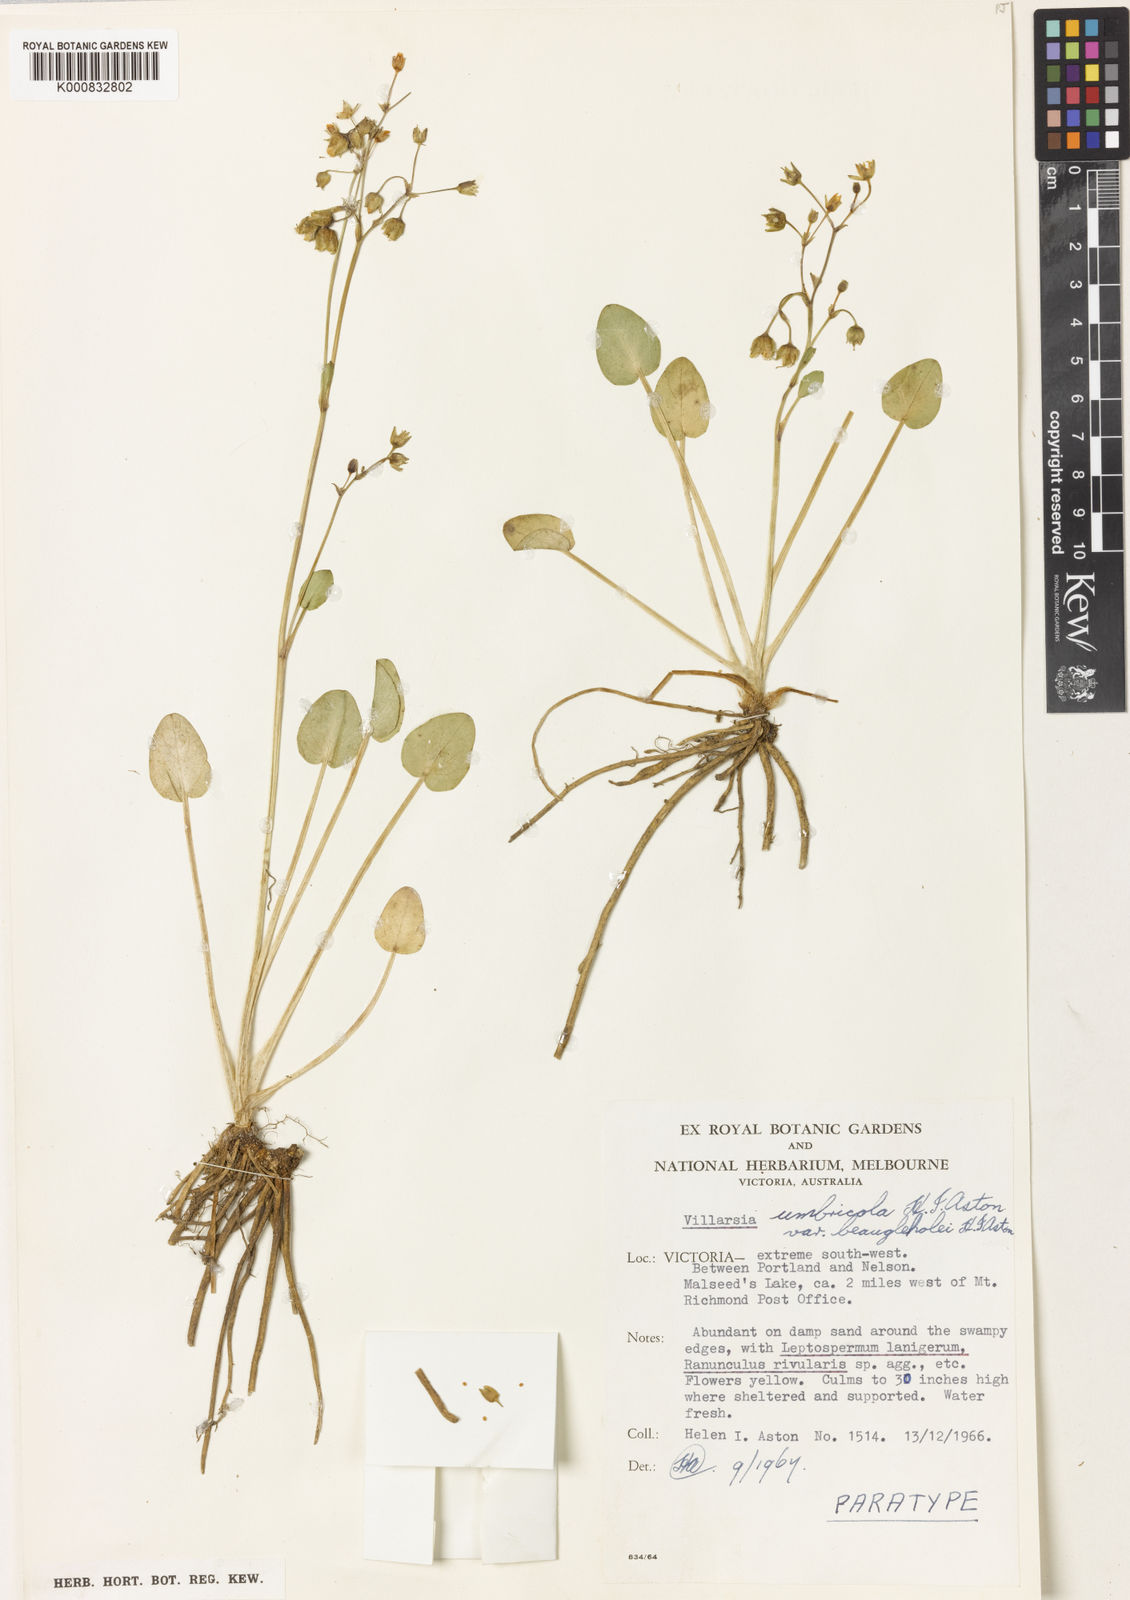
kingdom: Plantae
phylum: Tracheophyta
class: Magnoliopsida
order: Asterales
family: Menyanthaceae
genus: Ornduffia
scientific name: Ornduffia umbricola
